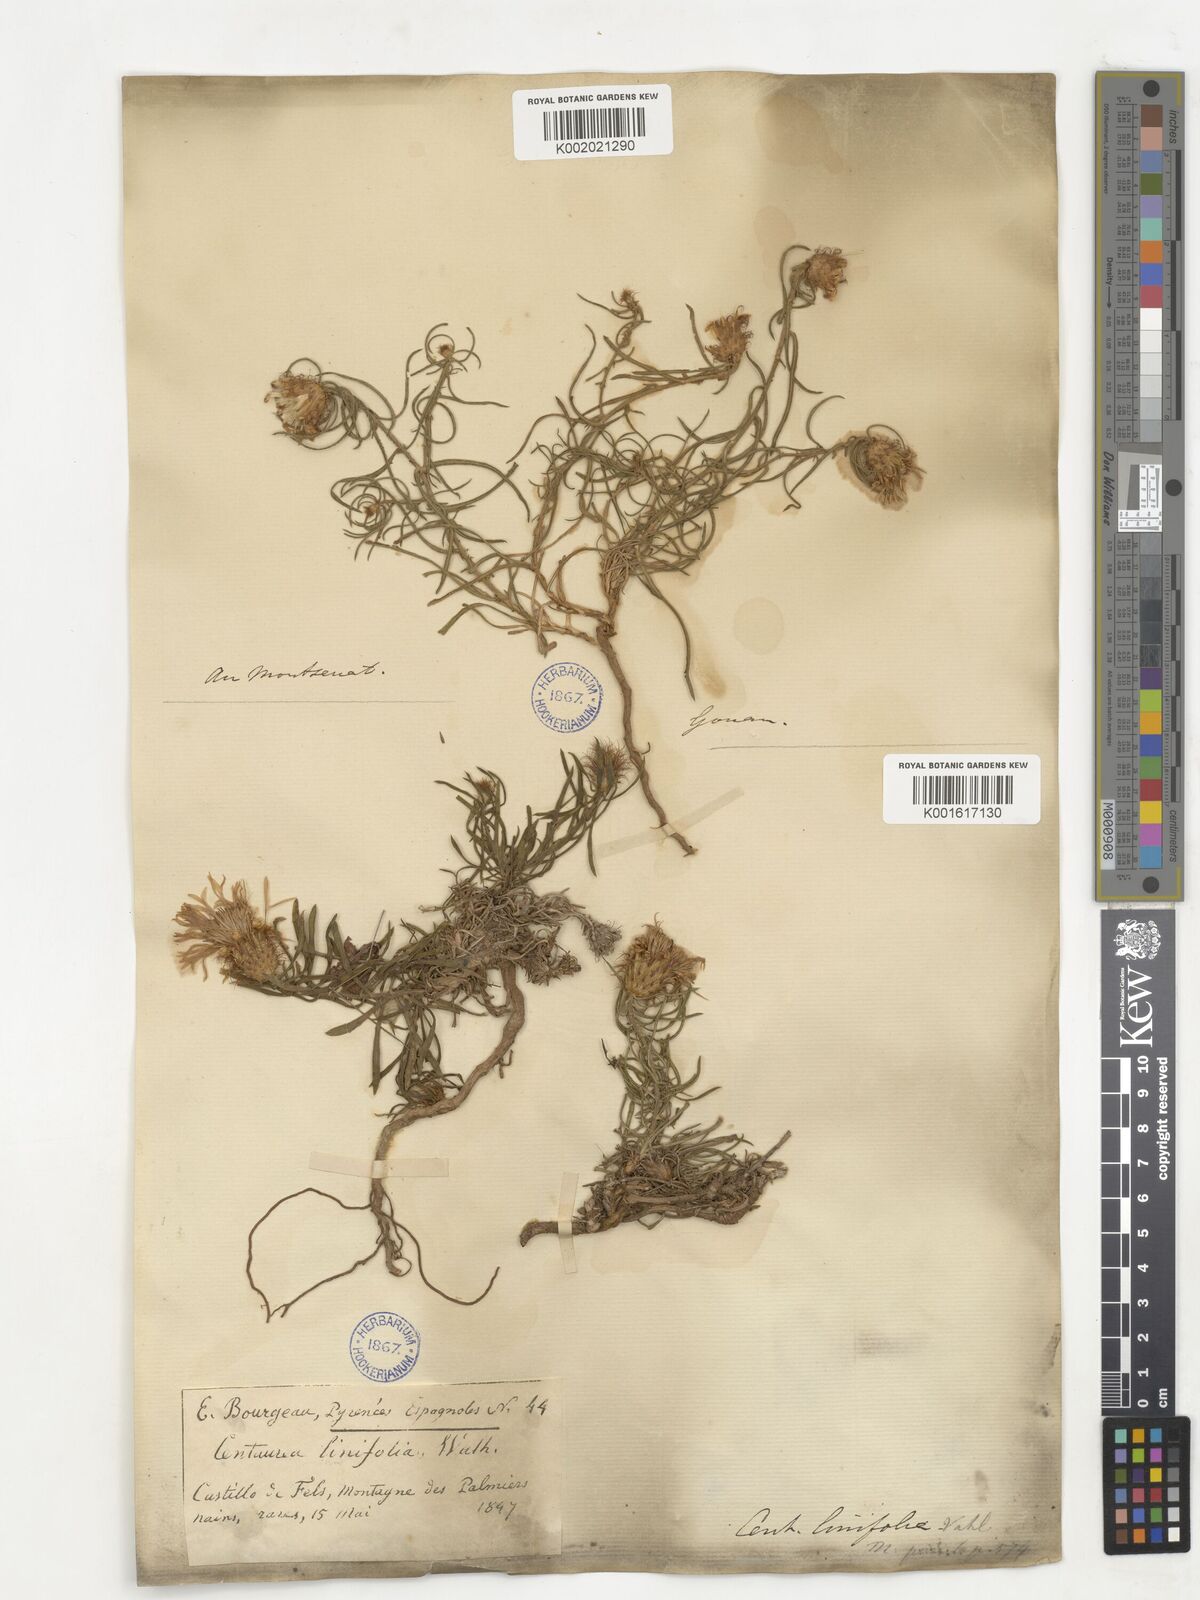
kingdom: Plantae
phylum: Tracheophyta
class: Magnoliopsida
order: Asterales
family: Asteraceae
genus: Centaurea
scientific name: Centaurea linifolia
